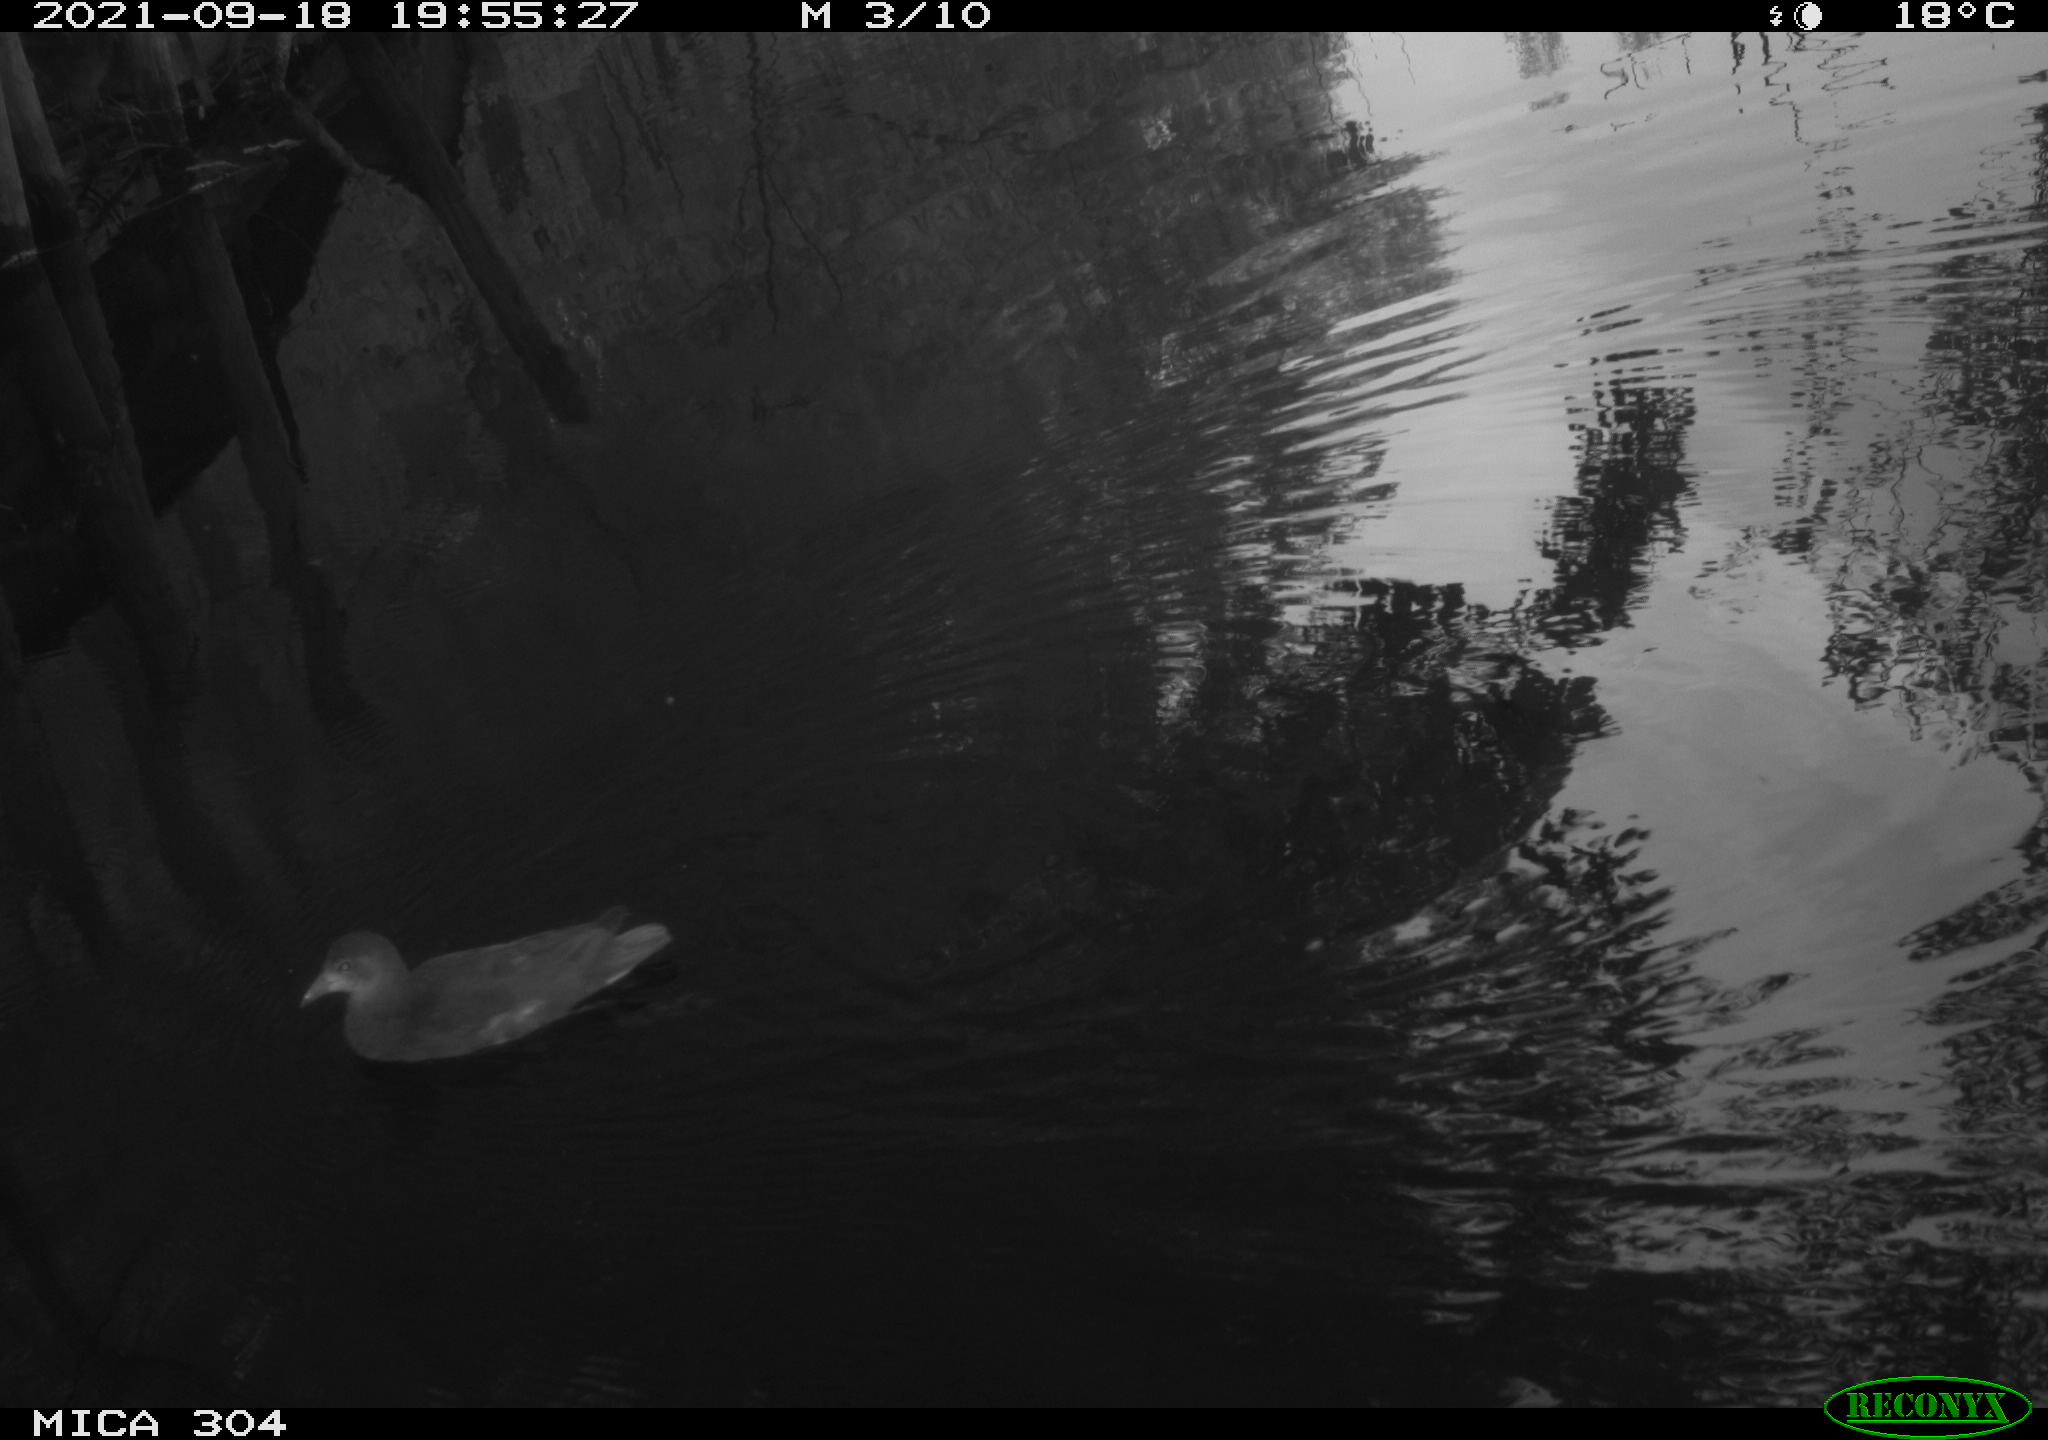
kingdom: Animalia
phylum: Chordata
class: Aves
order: Gruiformes
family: Rallidae
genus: Gallinula
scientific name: Gallinula chloropus
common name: Common moorhen
